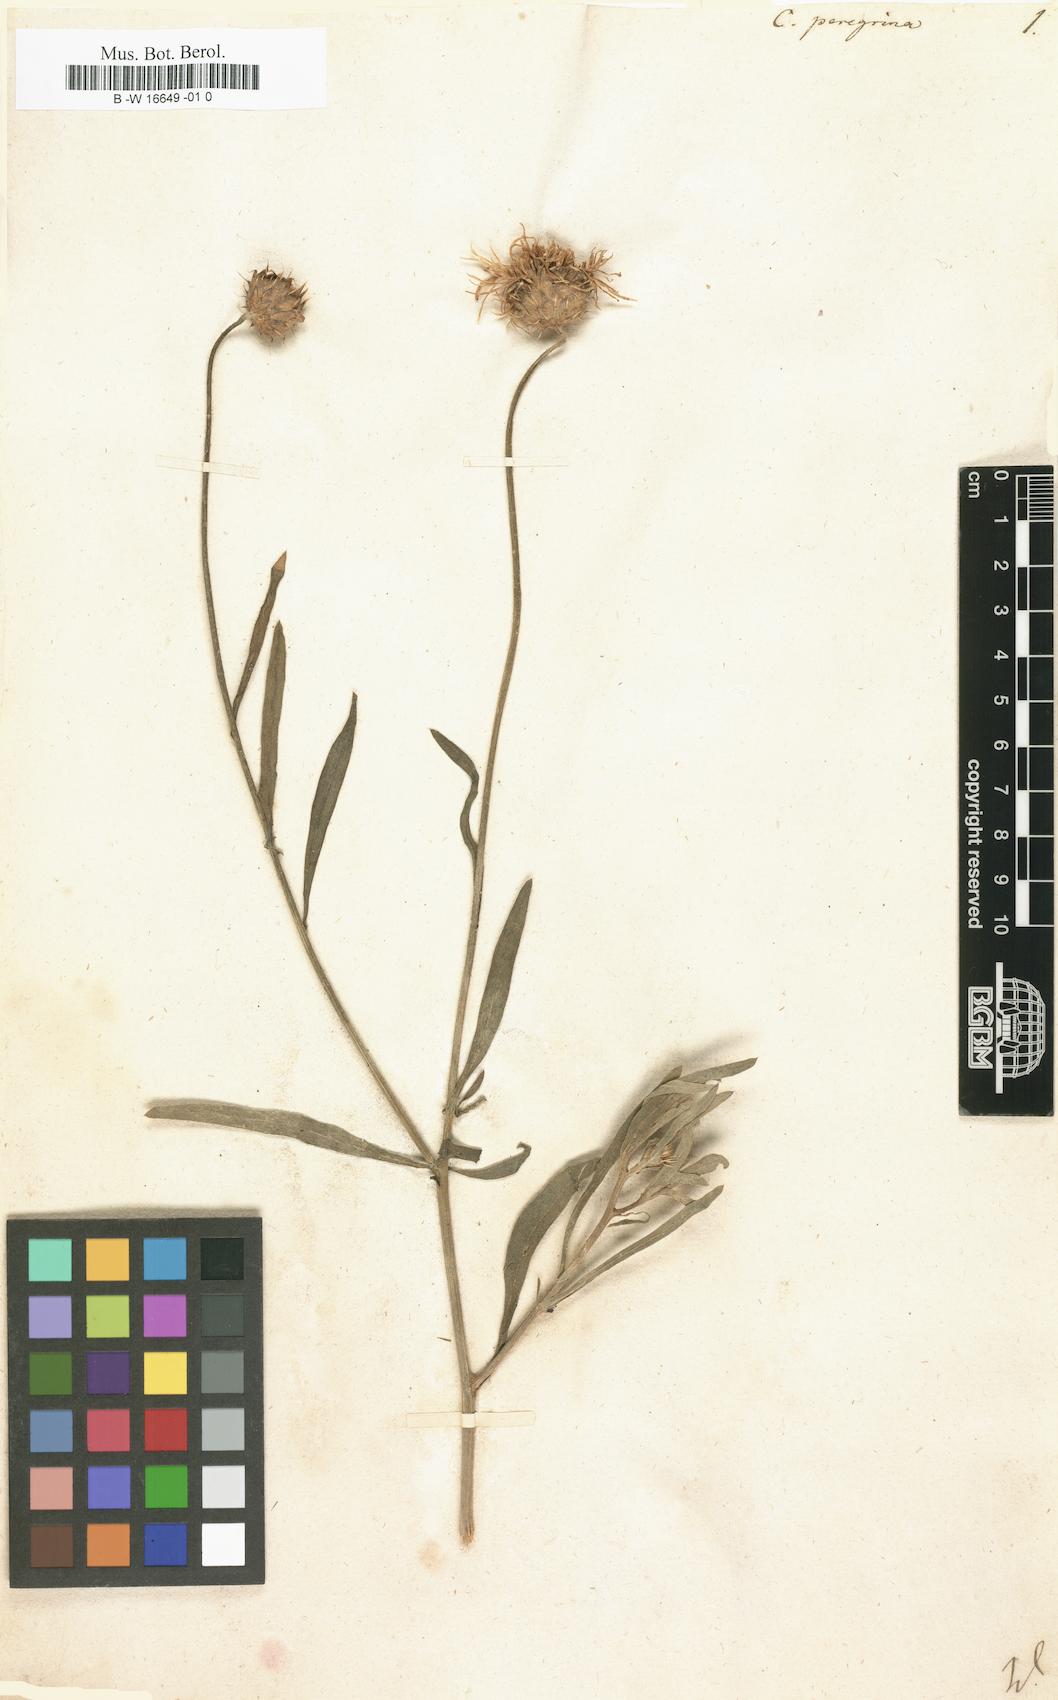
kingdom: Plantae
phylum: Tracheophyta
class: Magnoliopsida
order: Asterales
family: Asteraceae
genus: Centaurea
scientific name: Centaurea peregrina
